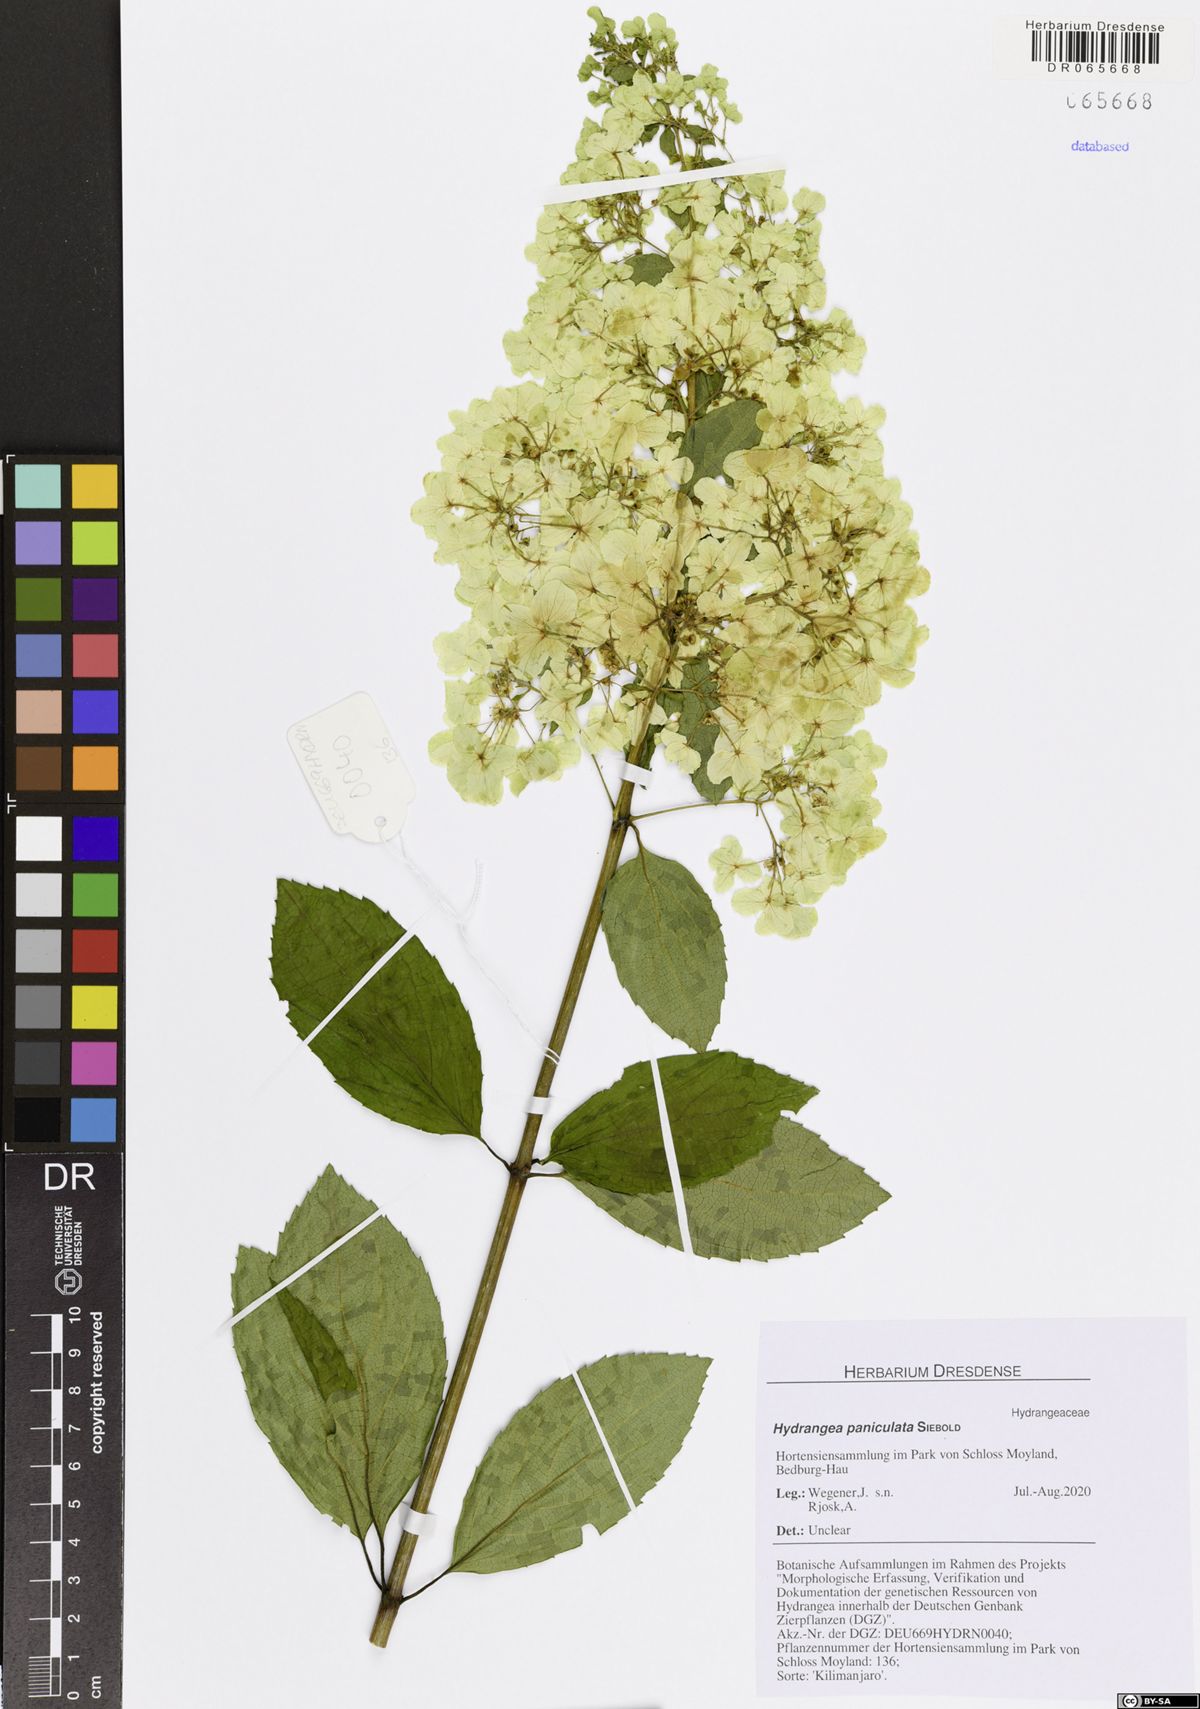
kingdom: Plantae
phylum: Tracheophyta
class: Magnoliopsida
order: Cornales
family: Hydrangeaceae
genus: Hydrangea
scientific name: Hydrangea paniculata
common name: Panicled hydrangea
